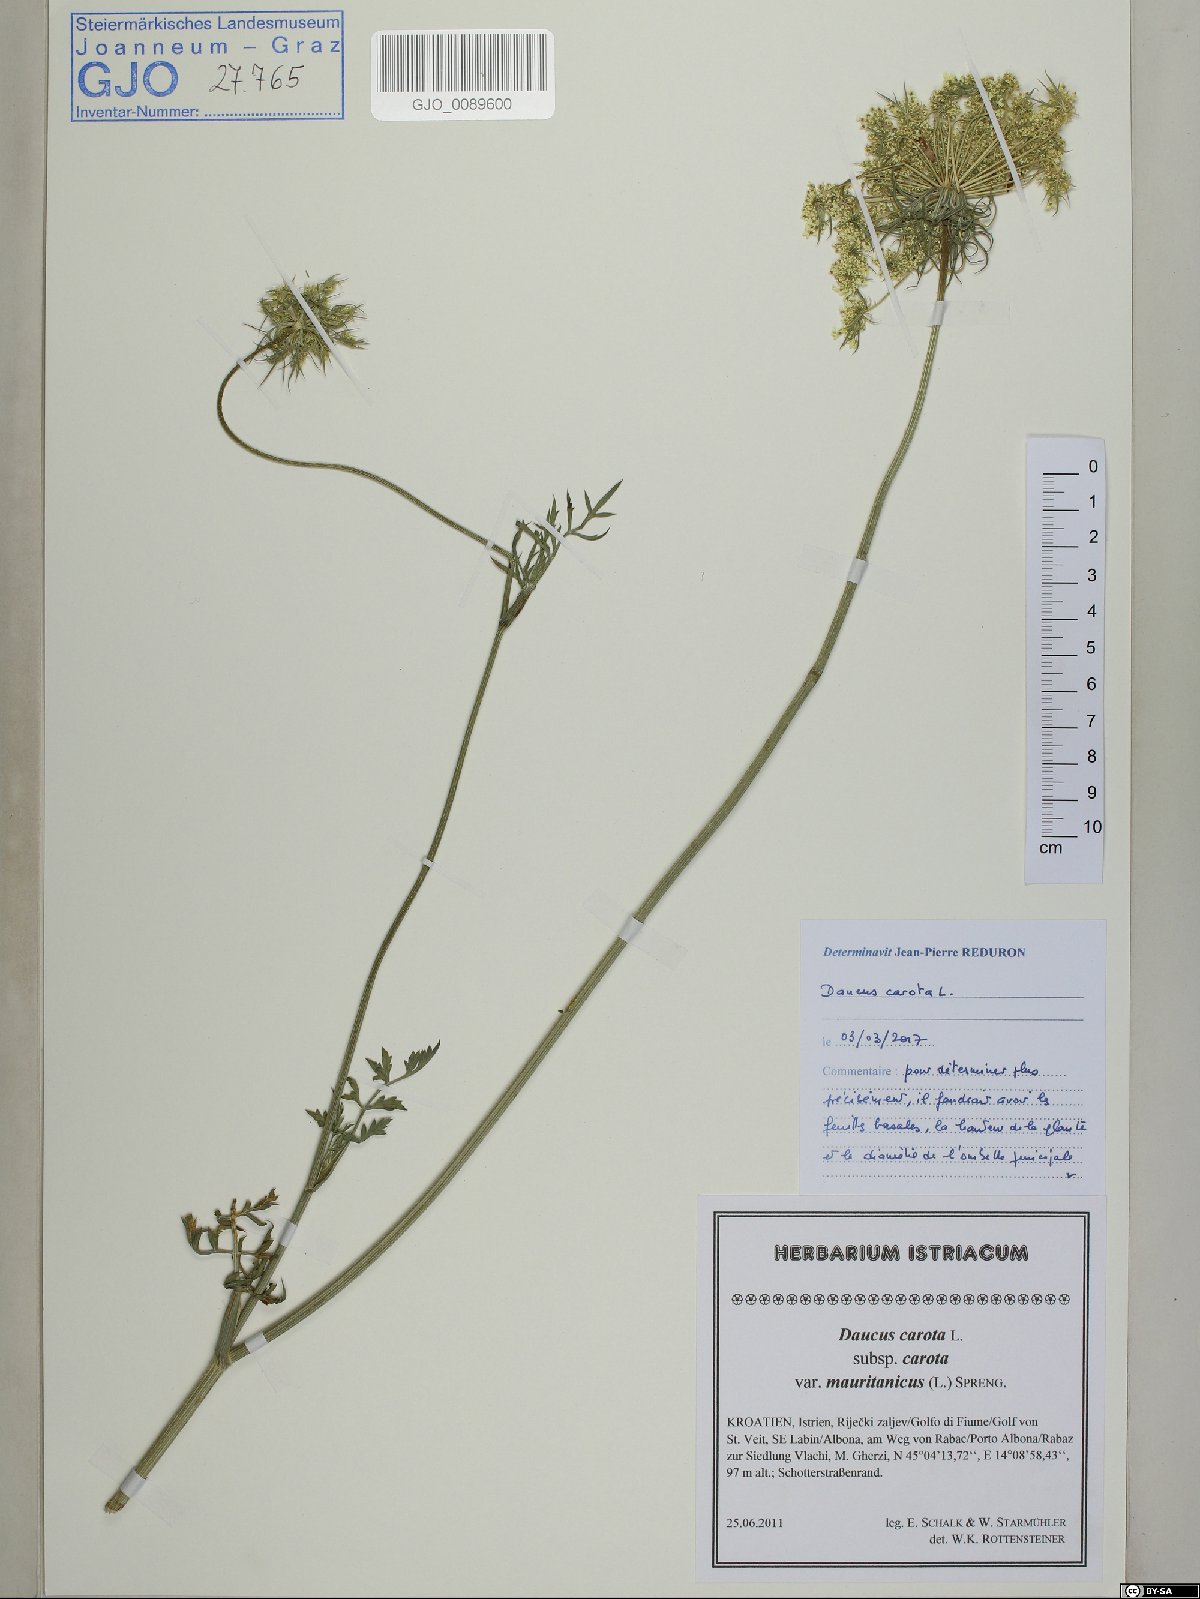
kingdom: Plantae
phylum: Tracheophyta
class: Magnoliopsida
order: Apiales
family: Apiaceae
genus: Daucus
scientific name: Daucus carota
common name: Wild carrot
